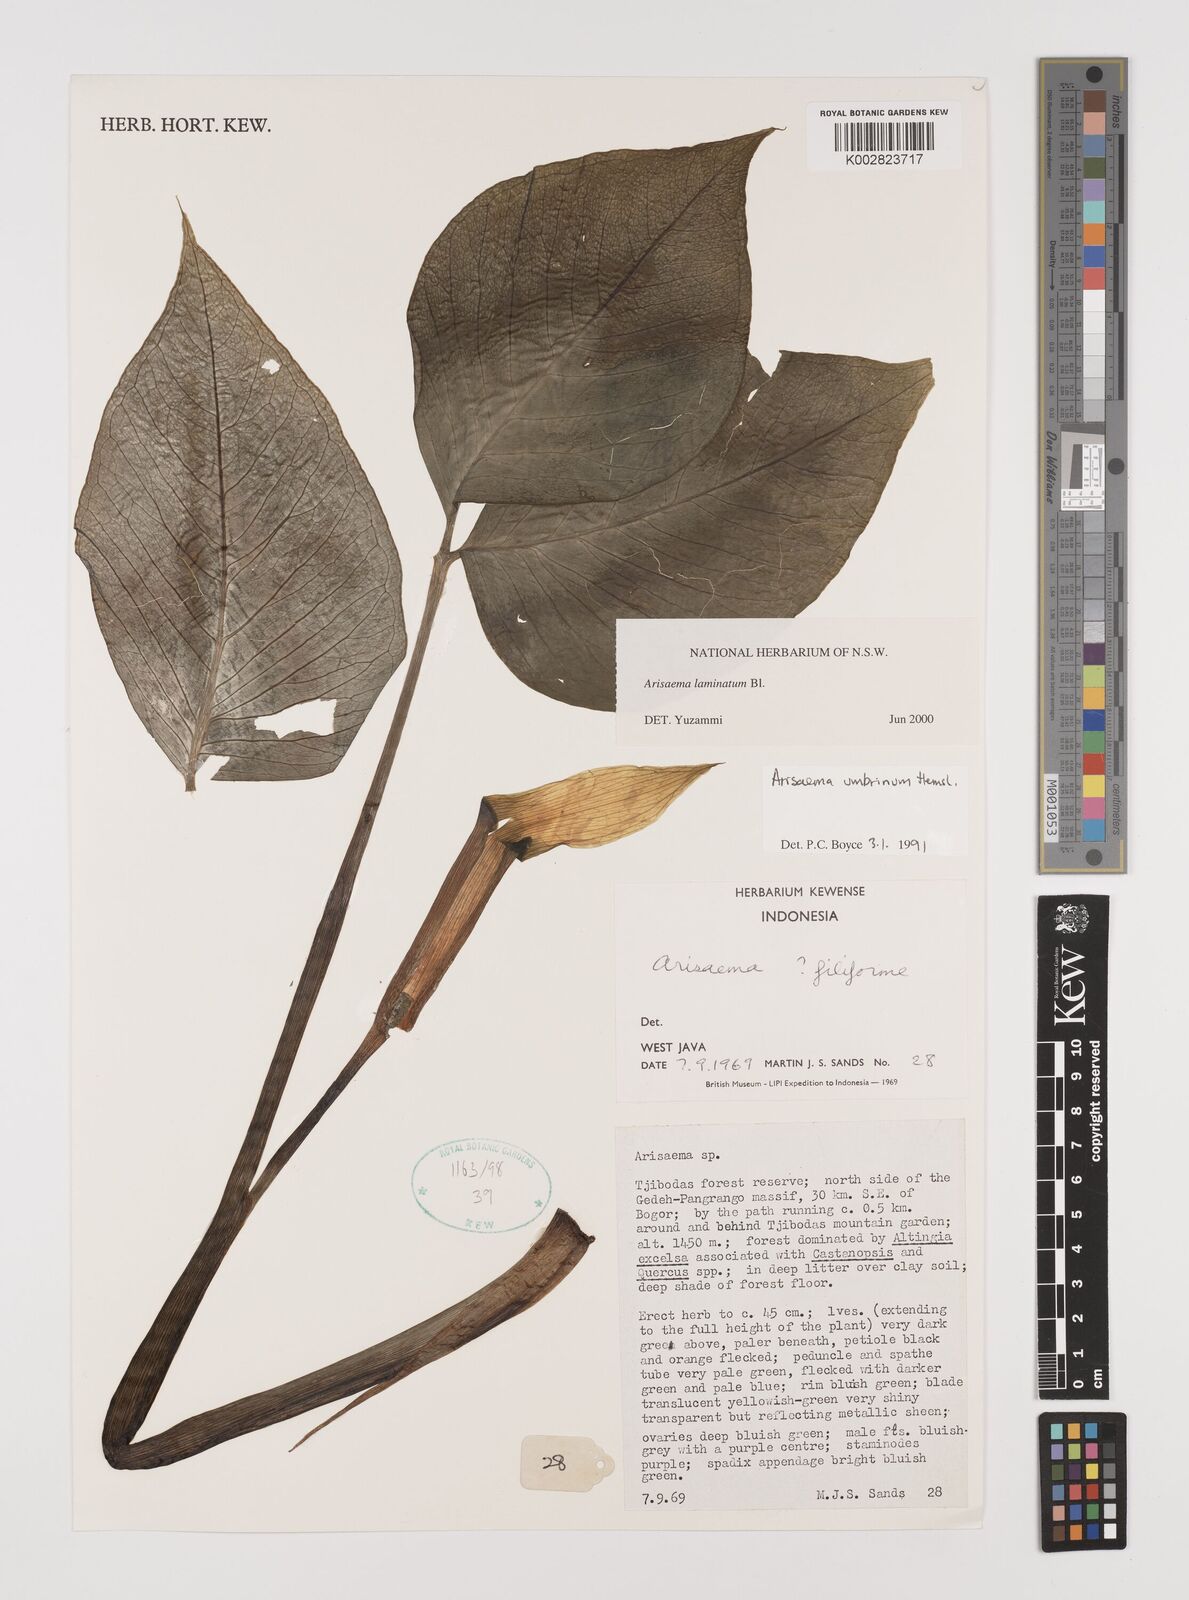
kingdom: Plantae
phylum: Tracheophyta
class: Liliopsida
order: Alismatales
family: Araceae
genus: Arisaema
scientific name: Arisaema laminatum
